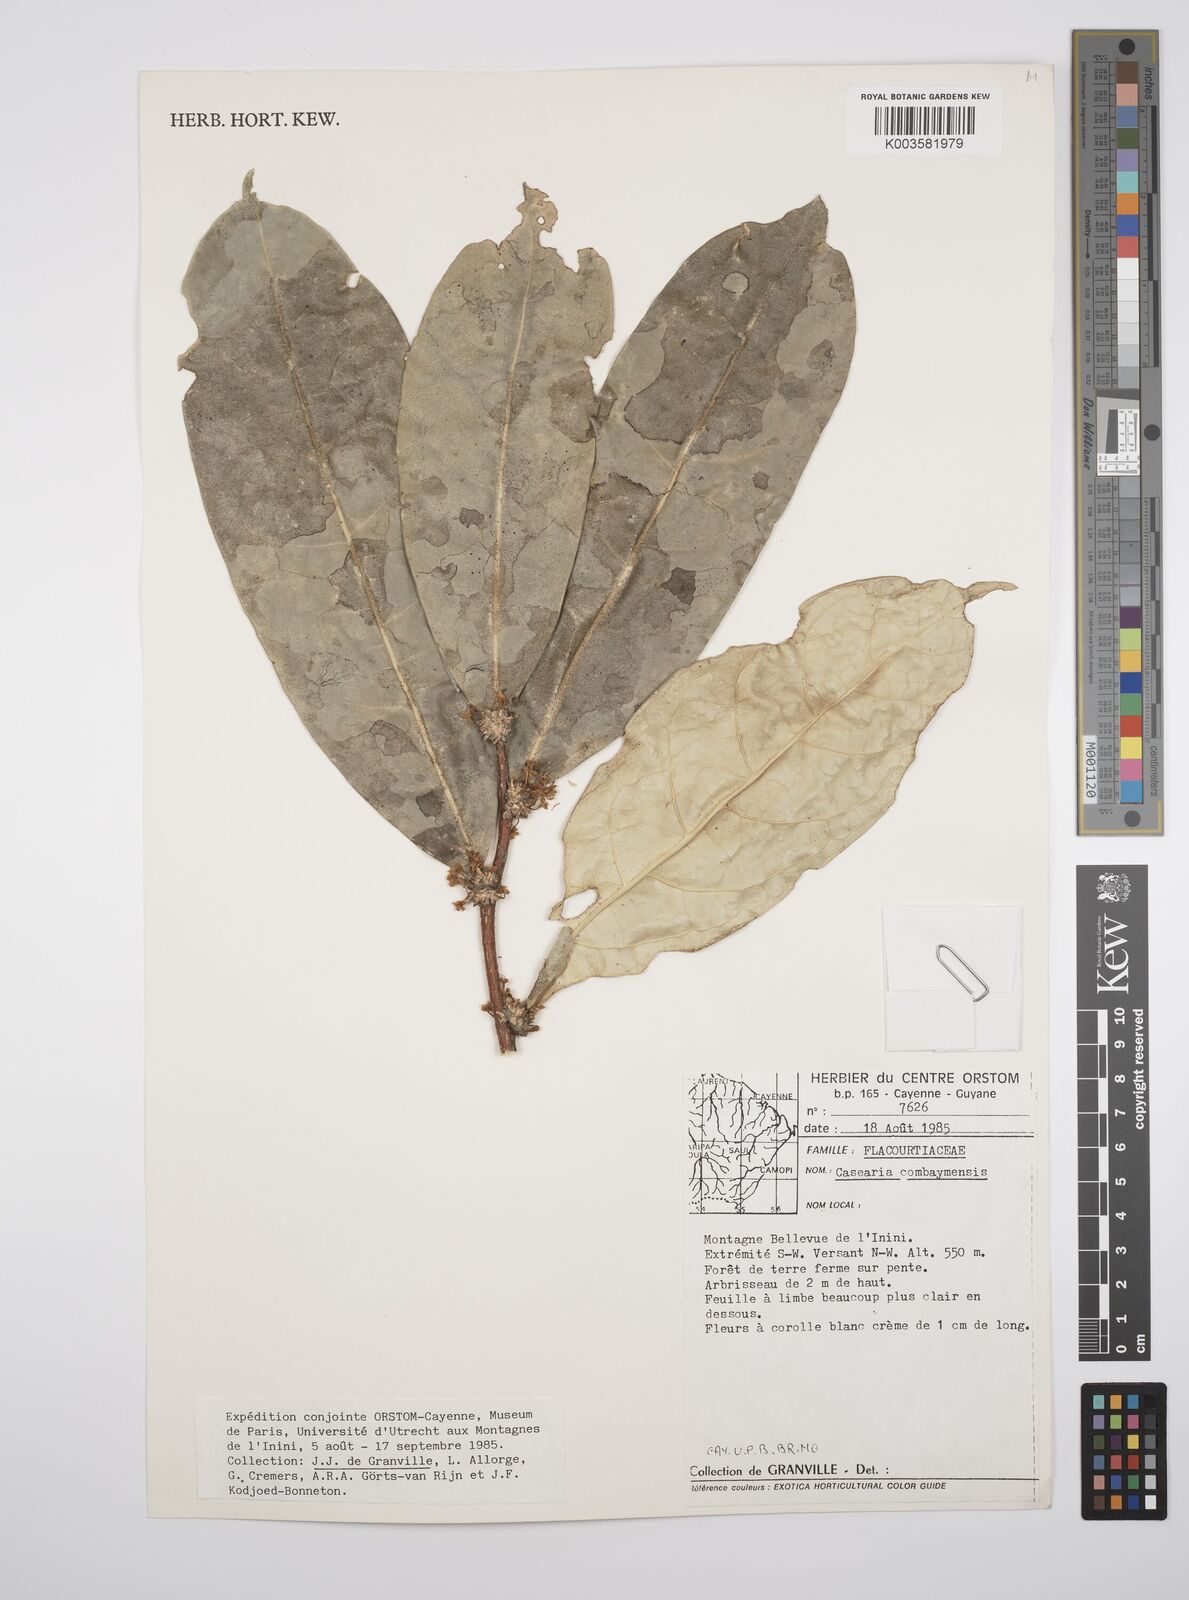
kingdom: Plantae
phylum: Tracheophyta
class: Magnoliopsida
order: Malpighiales
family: Salicaceae
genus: Casearia
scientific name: Casearia
